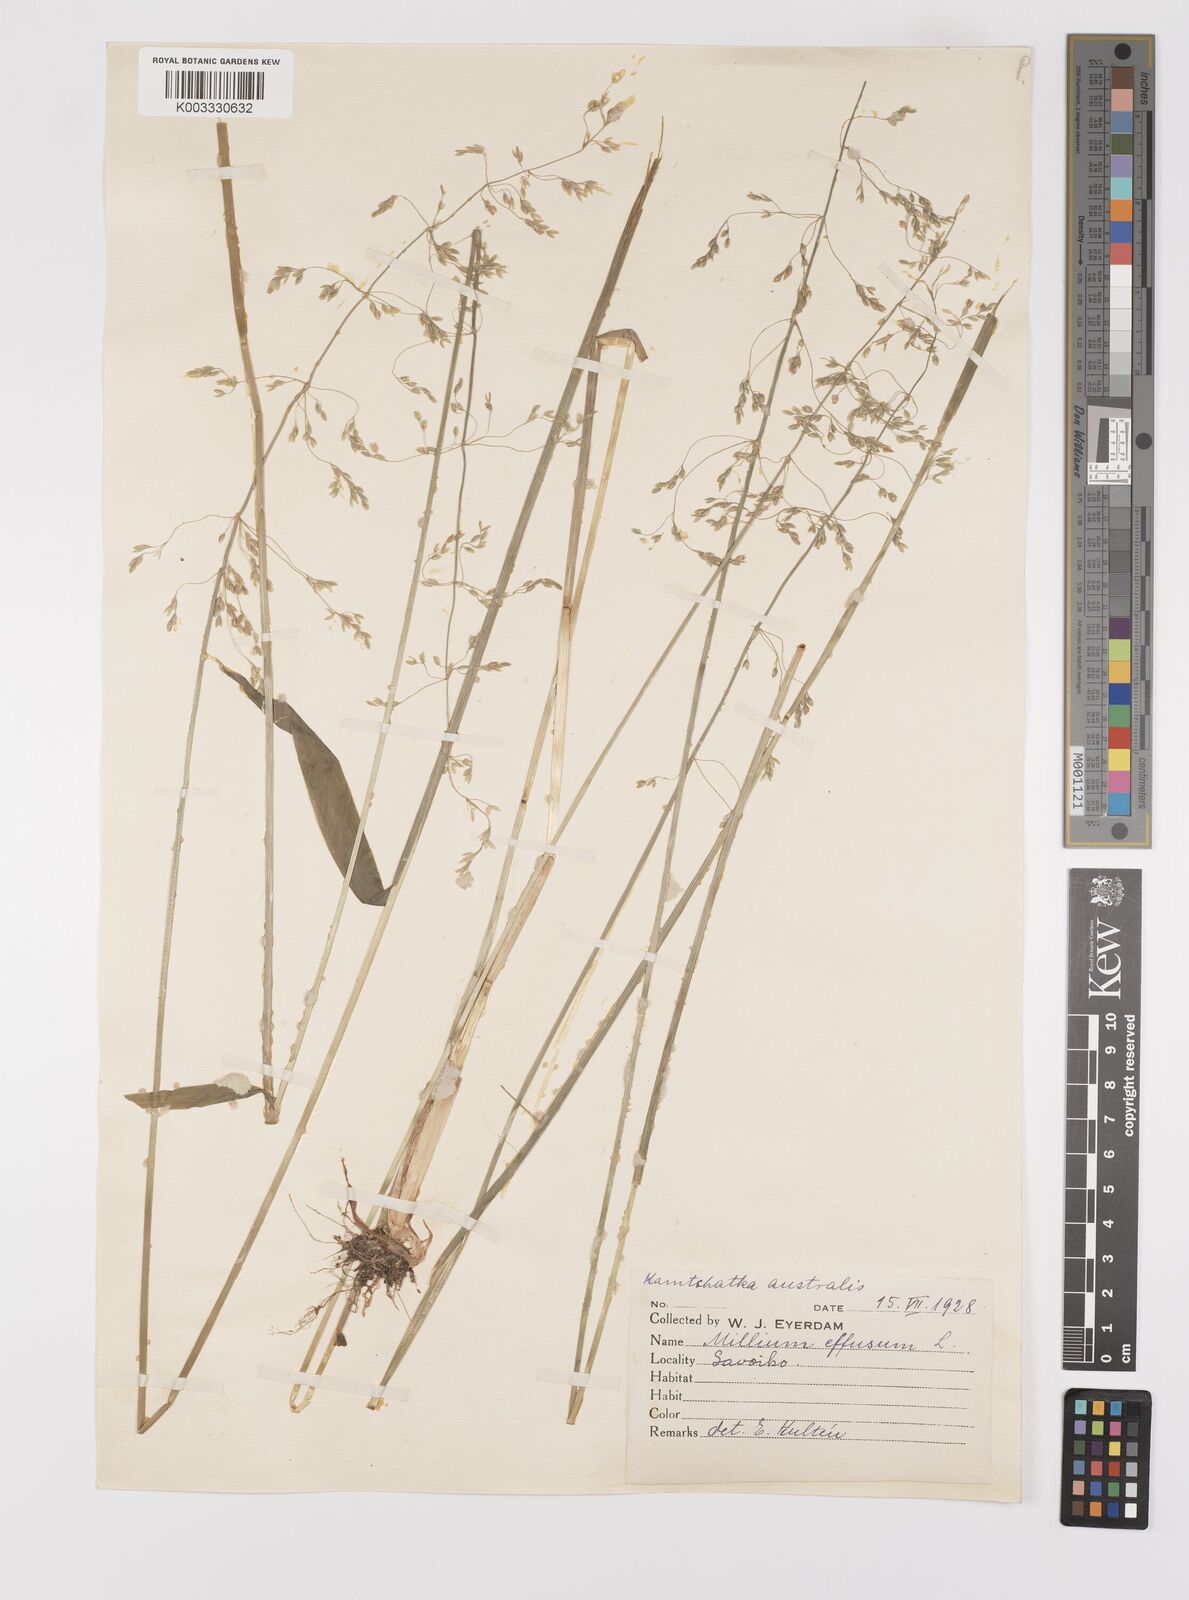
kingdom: Plantae
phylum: Tracheophyta
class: Liliopsida
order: Poales
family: Poaceae
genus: Milium
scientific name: Milium effusum
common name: Wood millet
